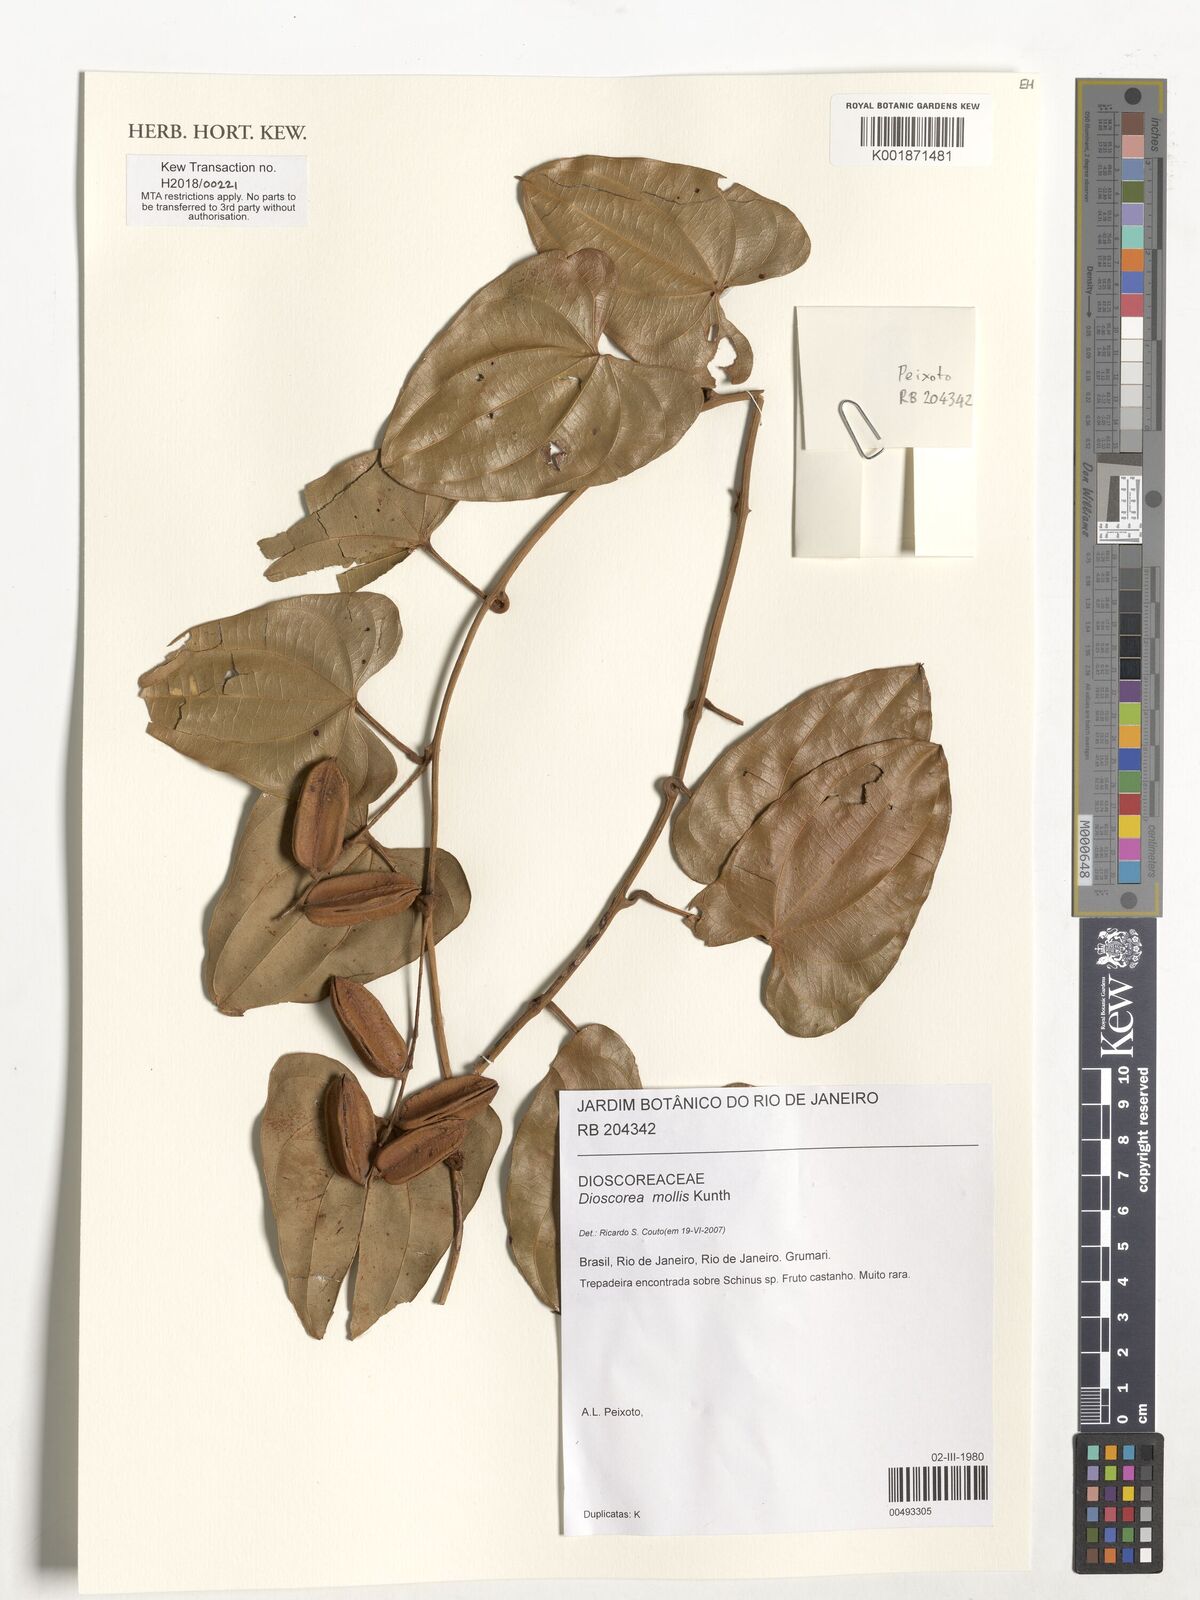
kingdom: Plantae
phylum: Tracheophyta
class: Liliopsida
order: Dioscoreales
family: Dioscoreaceae
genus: Dioscorea
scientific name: Dioscorea mollis
